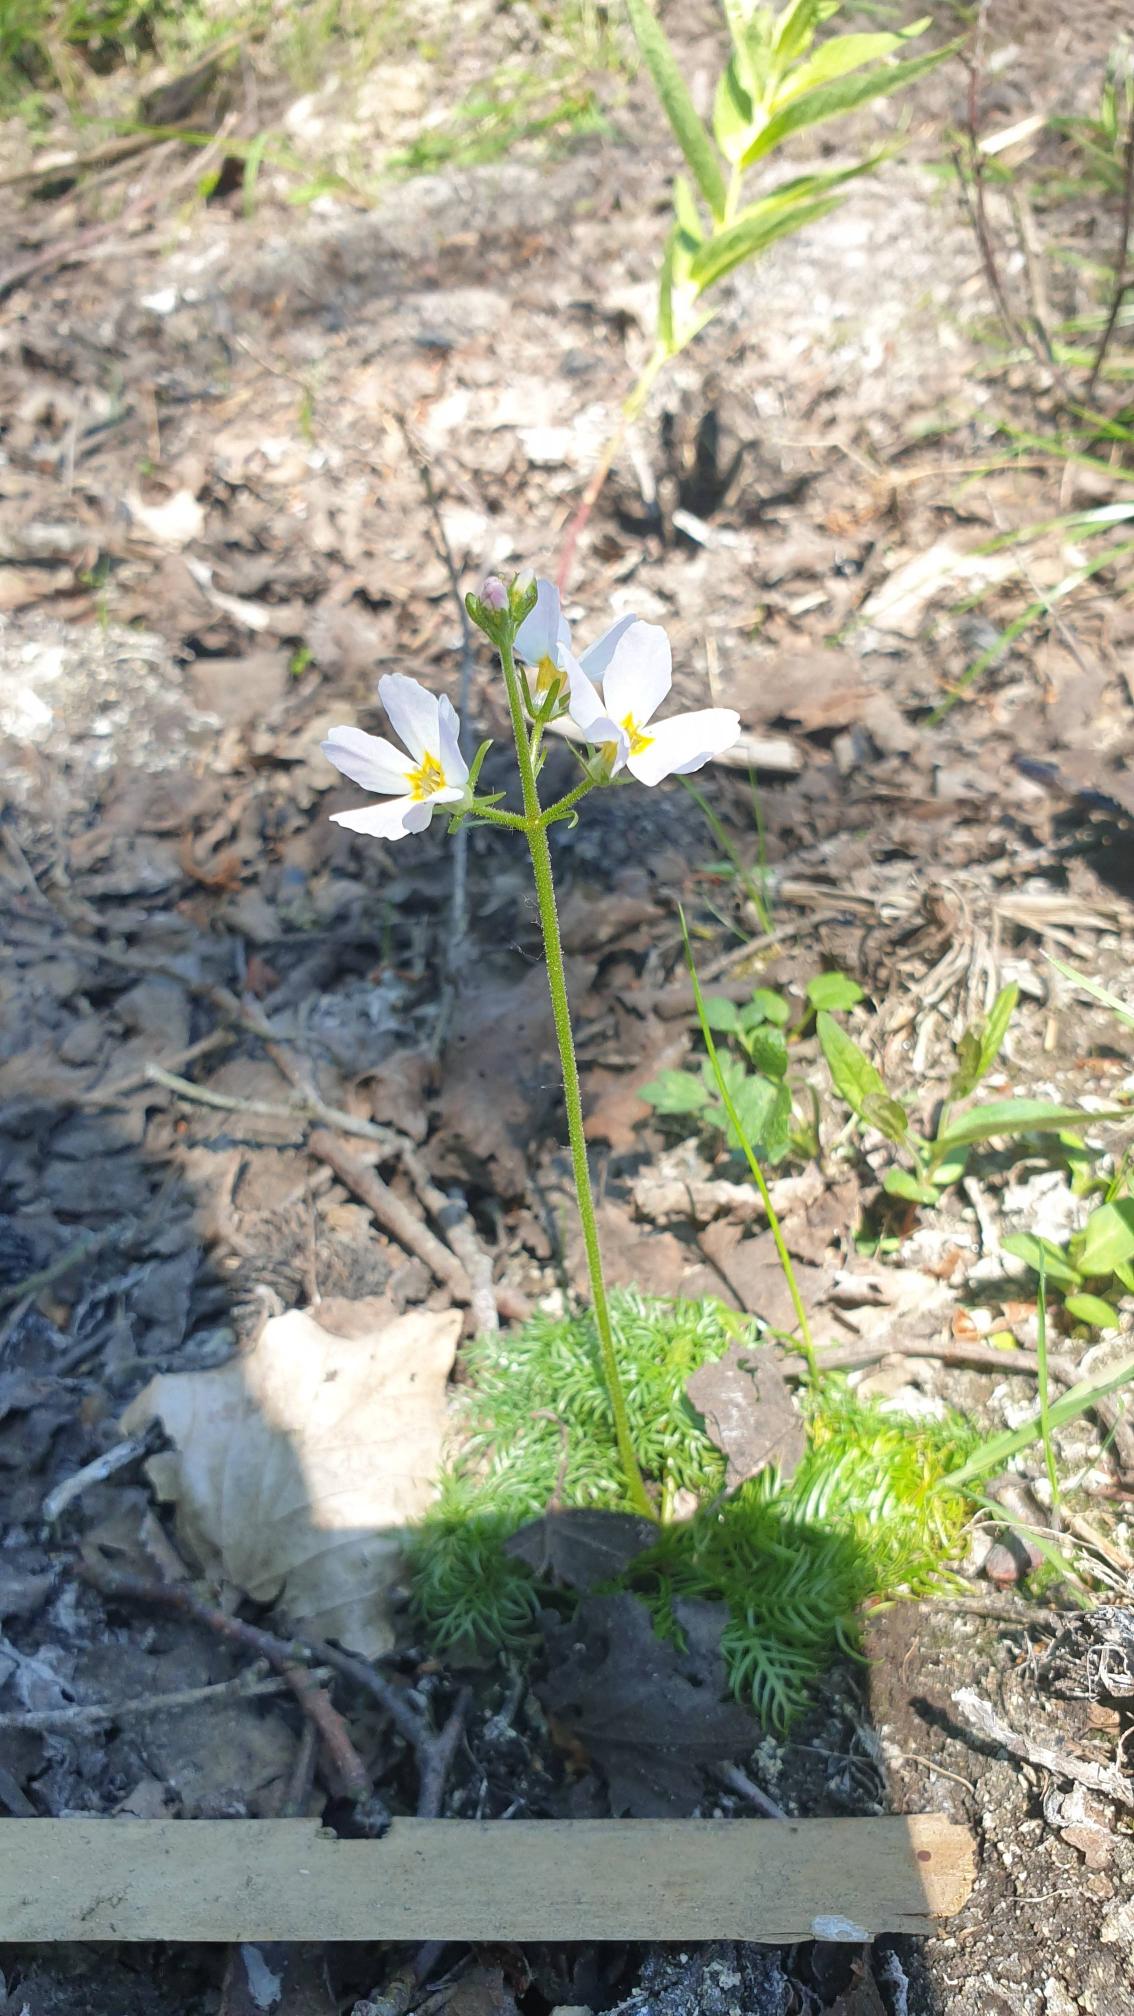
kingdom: Plantae
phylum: Tracheophyta
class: Magnoliopsida
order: Ericales
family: Primulaceae
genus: Hottonia
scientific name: Hottonia palustris
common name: Vandrøllike
